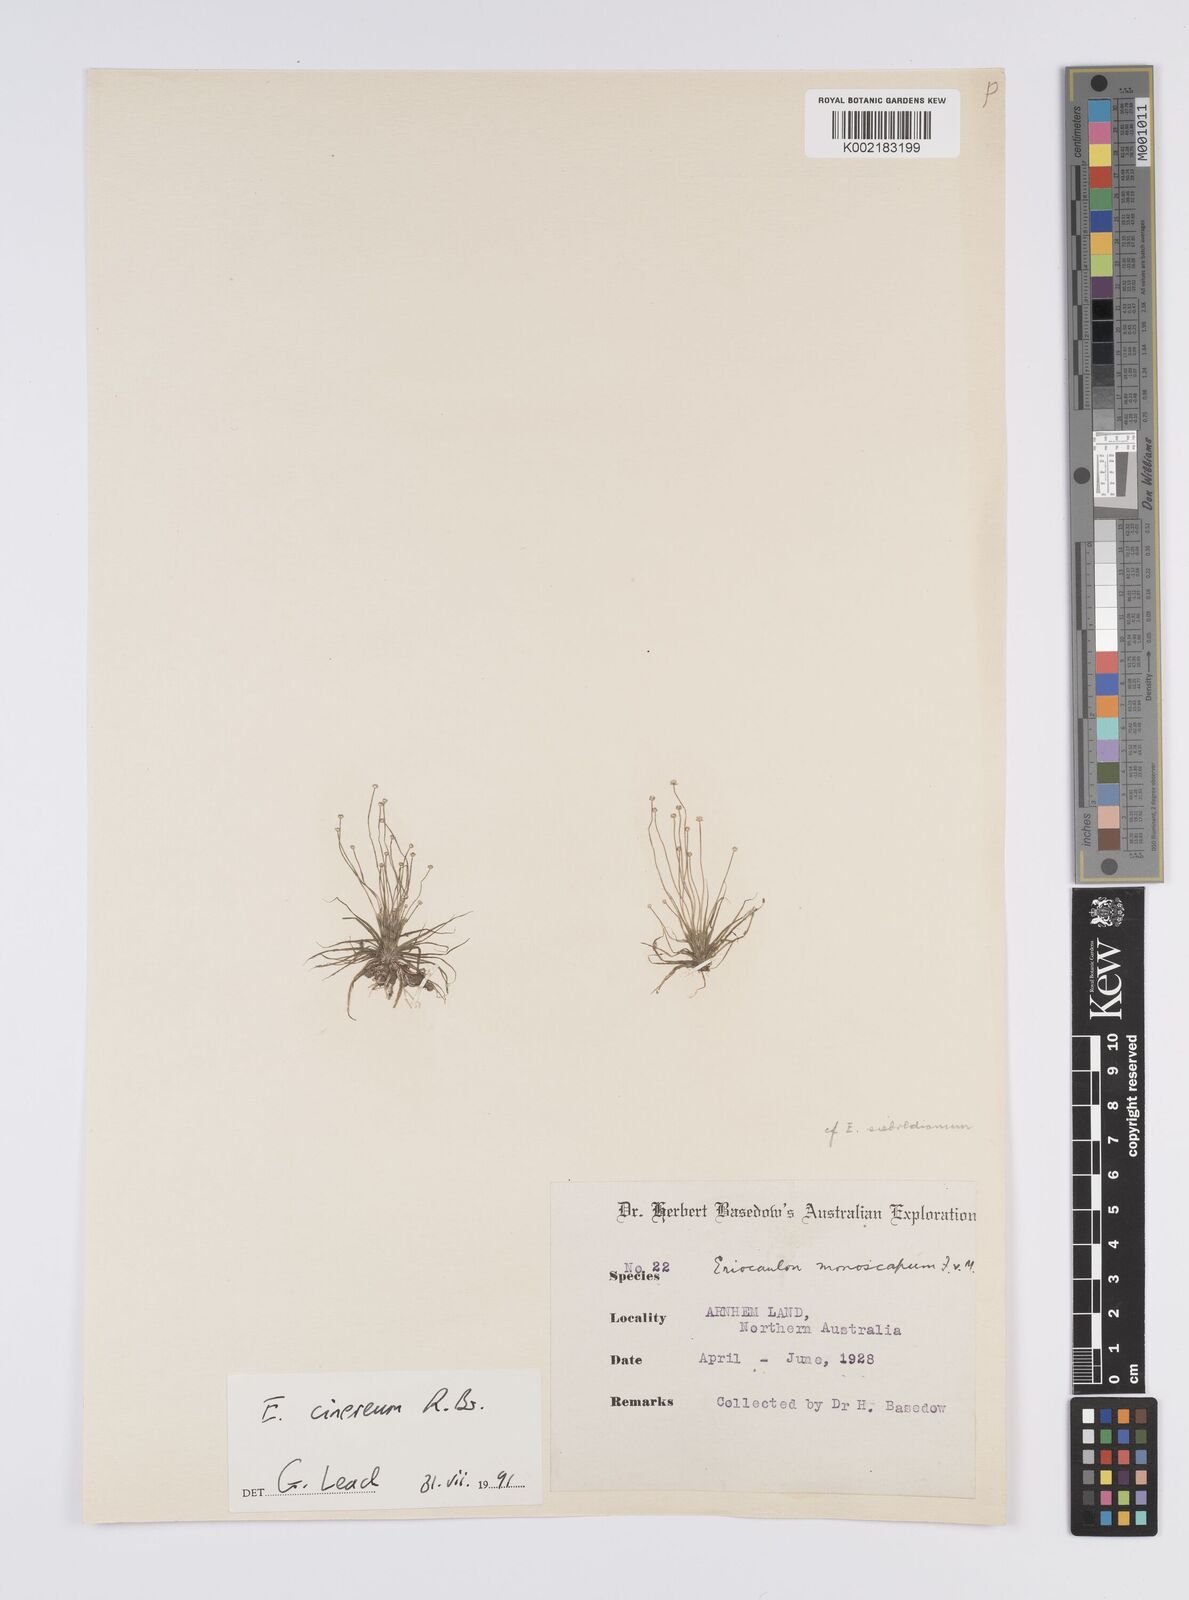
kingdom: Plantae
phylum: Tracheophyta
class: Liliopsida
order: Poales
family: Eriocaulaceae
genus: Eriocaulon
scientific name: Eriocaulon cinereum
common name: Ashy pipewort
